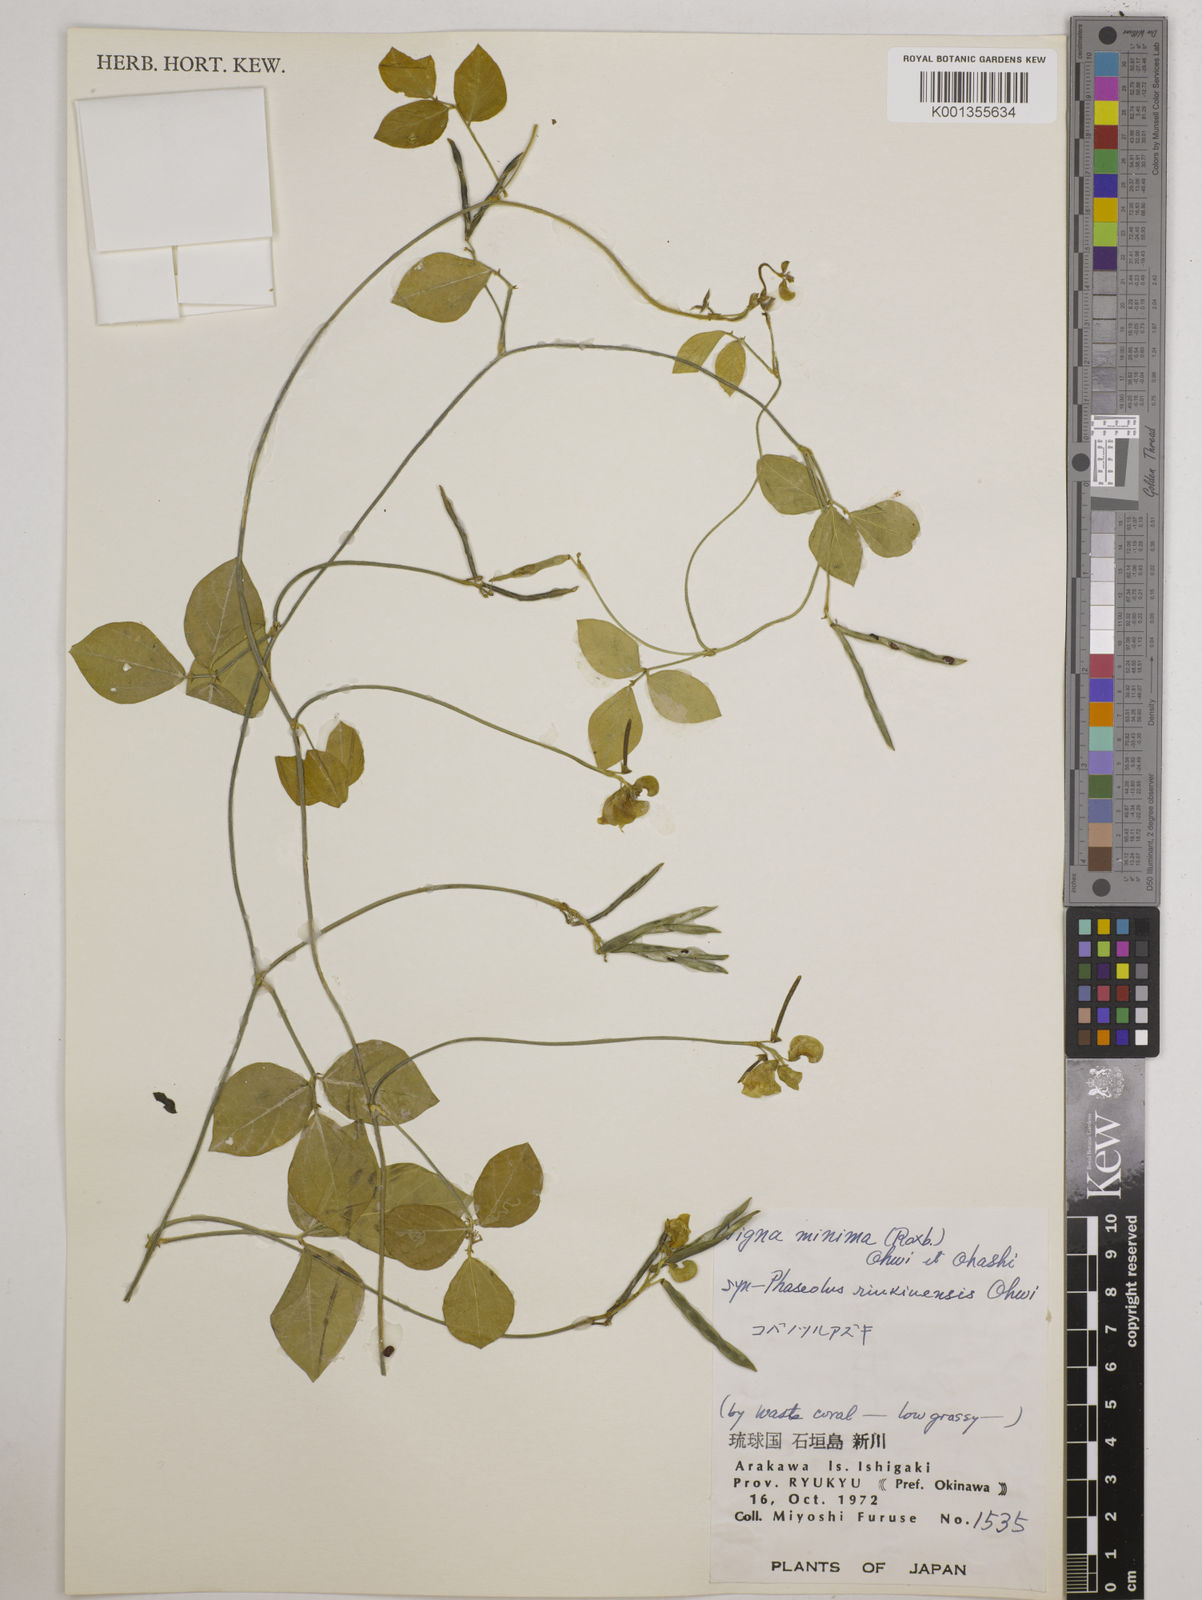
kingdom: Plantae
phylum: Tracheophyta
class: Magnoliopsida
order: Fabales
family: Fabaceae
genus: Vigna
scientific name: Vigna minima
